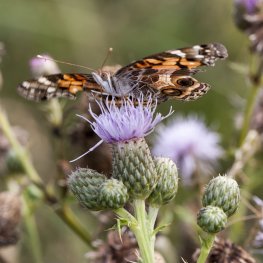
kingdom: Animalia
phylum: Arthropoda
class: Insecta
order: Lepidoptera
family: Nymphalidae
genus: Vanessa
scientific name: Vanessa virginiensis
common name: American Lady
